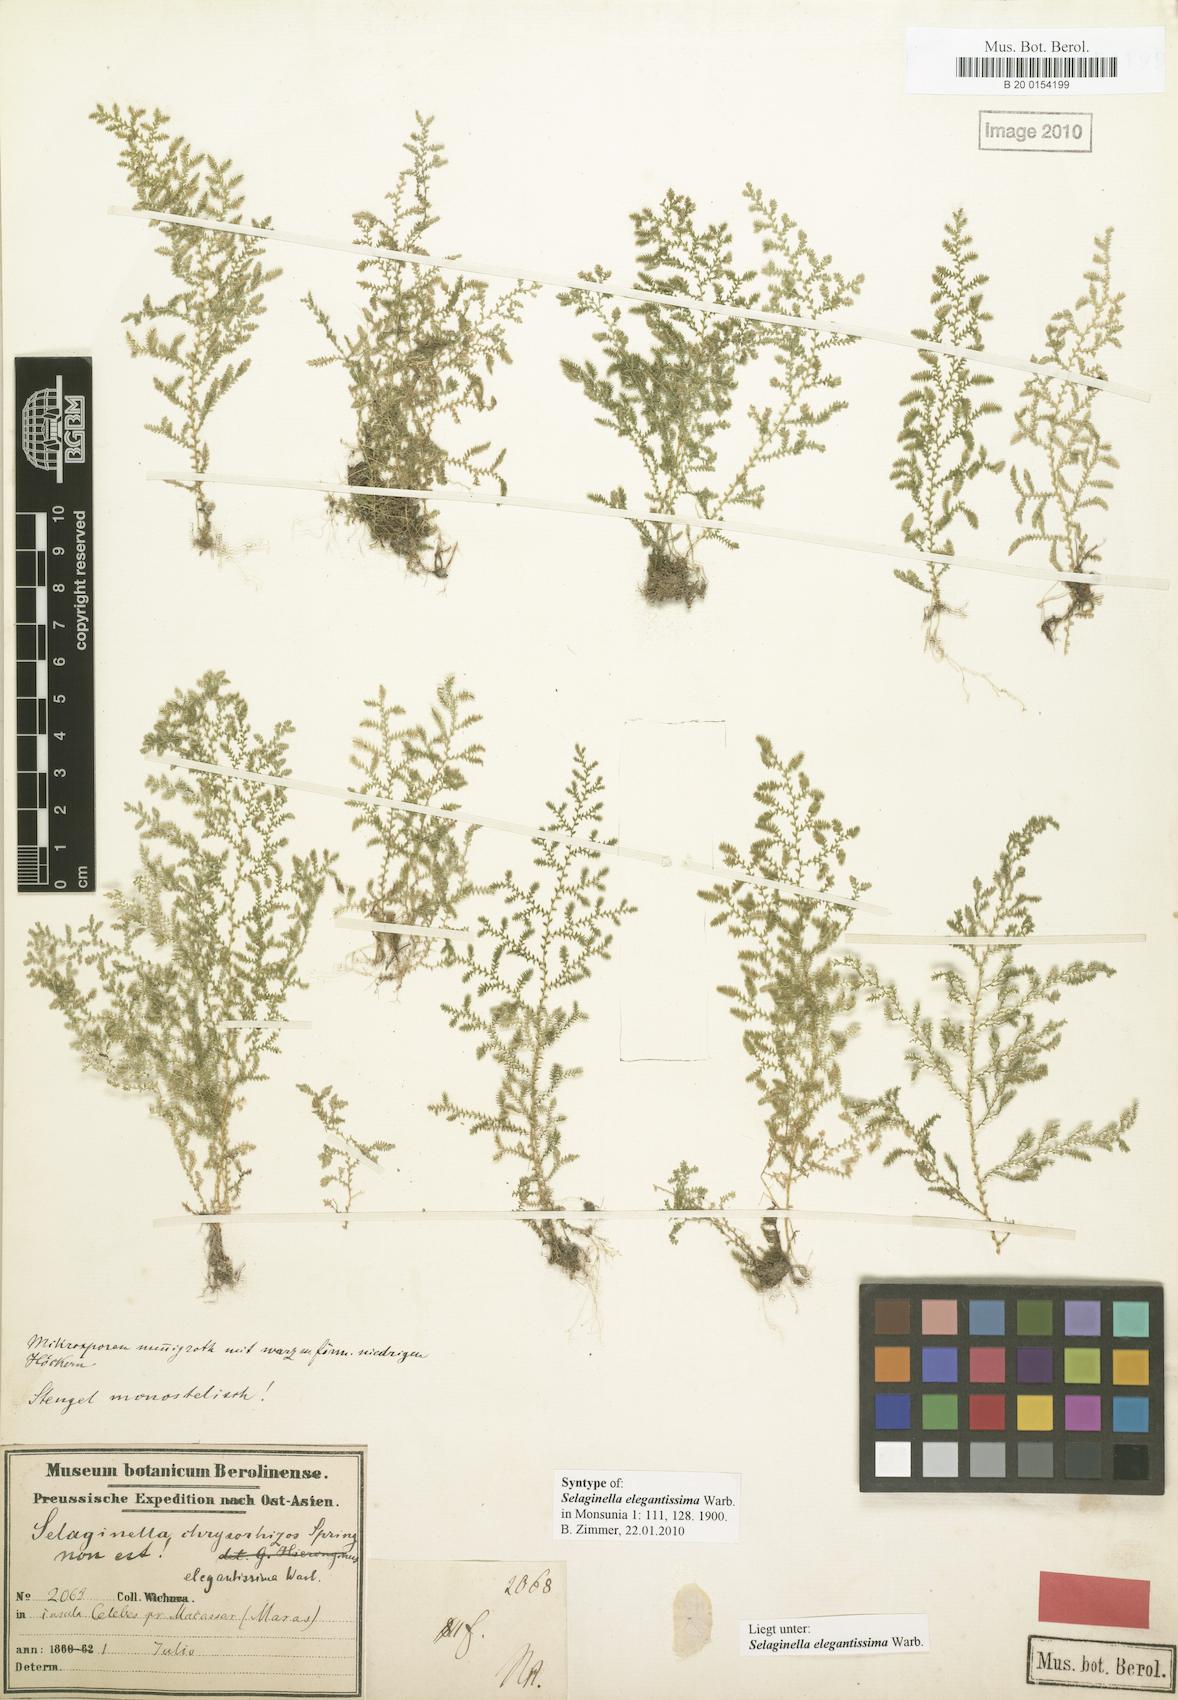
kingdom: Plantae
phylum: Tracheophyta
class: Lycopodiopsida
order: Selaginellales
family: Selaginellaceae
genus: Selaginella
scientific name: Selaginella elegantissima
